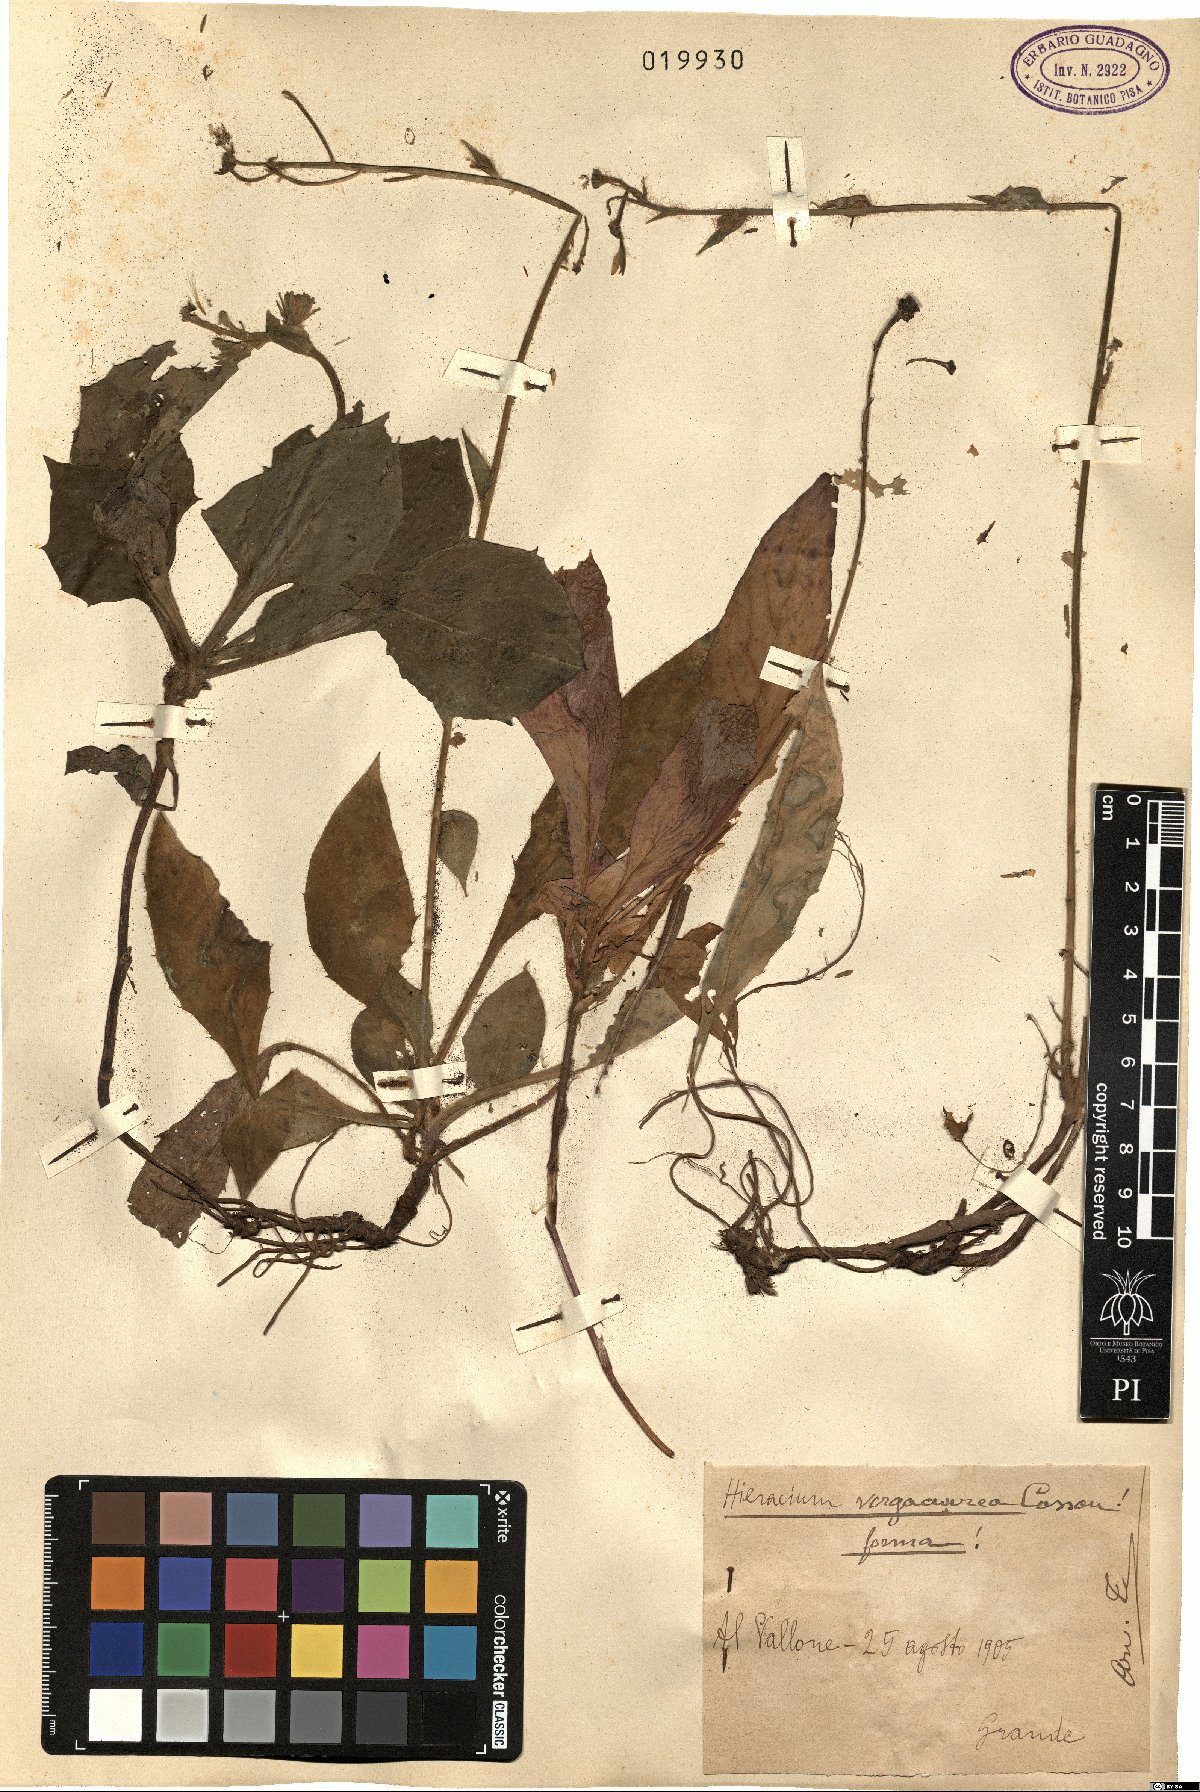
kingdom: Plantae
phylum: Tracheophyta
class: Magnoliopsida
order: Asterales
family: Asteraceae
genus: Hieracium
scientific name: Hieracium racemosum
